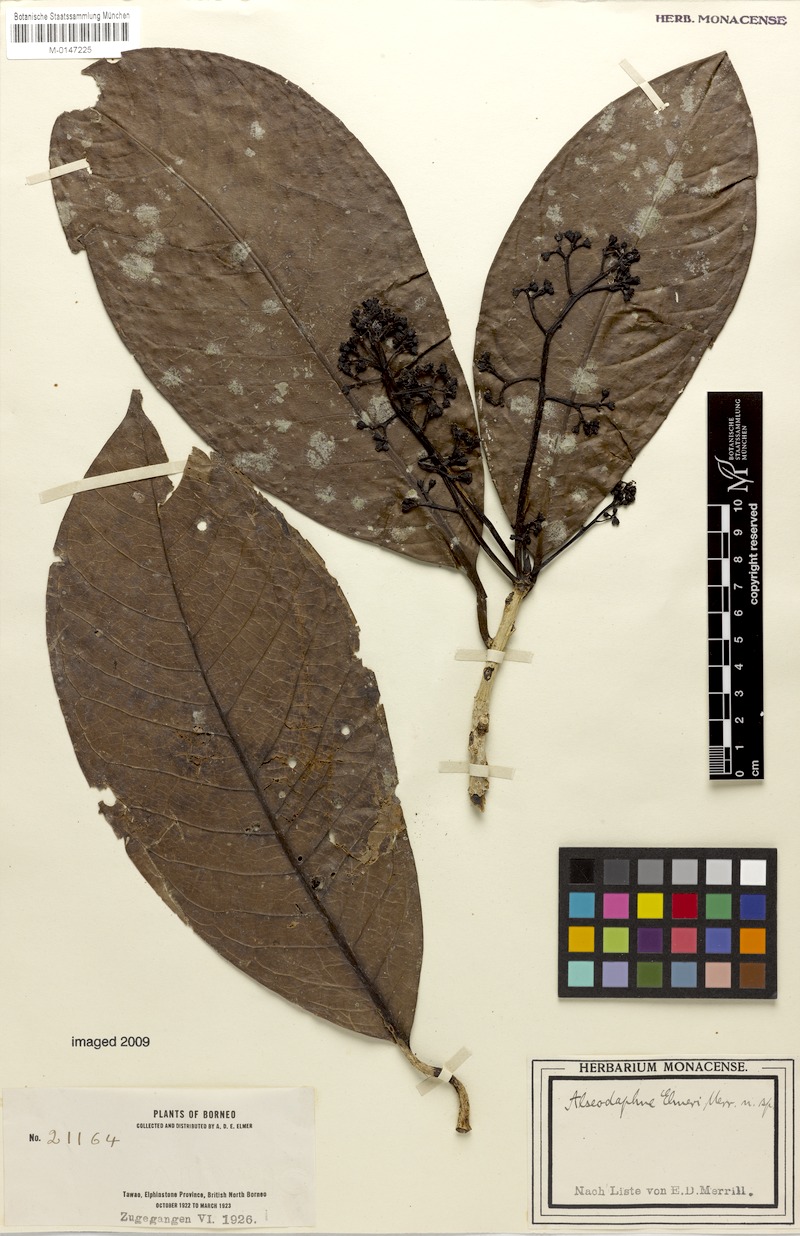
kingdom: Plantae
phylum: Tracheophyta
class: Magnoliopsida
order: Laurales
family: Lauraceae
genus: Alseodaphne
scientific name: Alseodaphne elmeri
